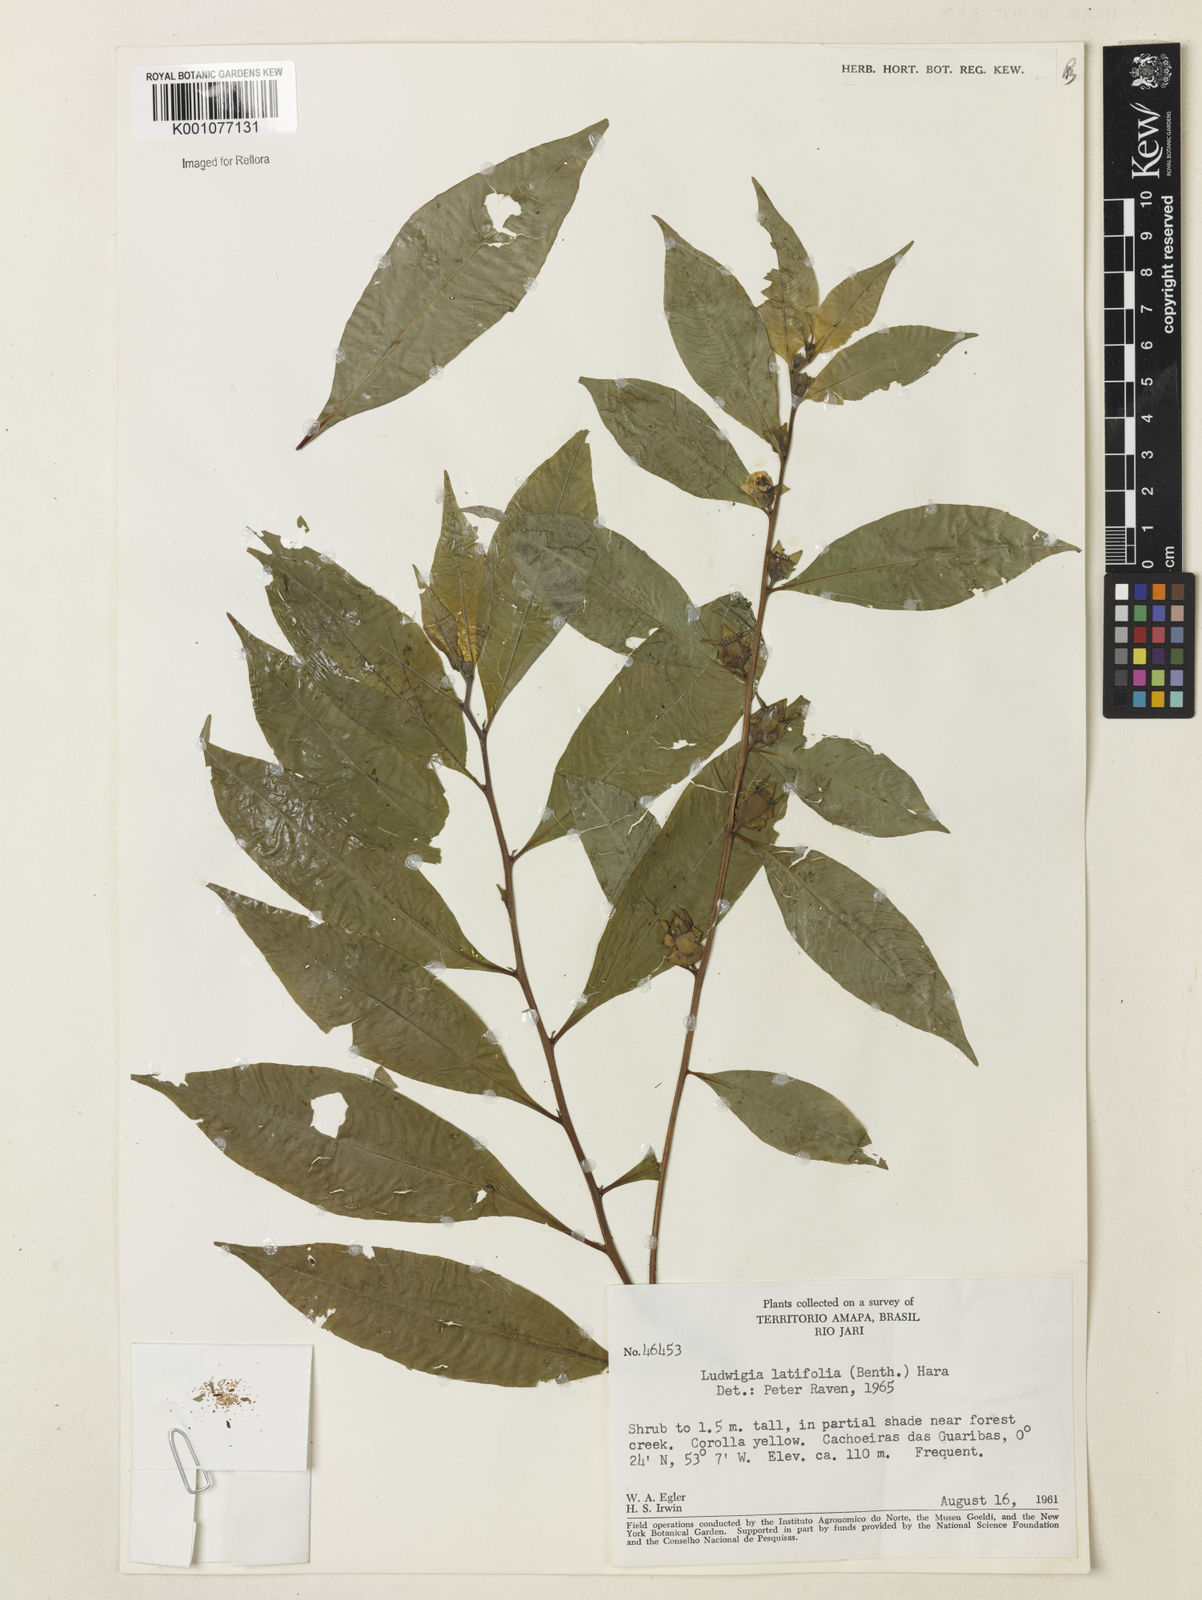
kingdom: Plantae
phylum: Tracheophyta
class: Magnoliopsida
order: Myrtales
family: Onagraceae
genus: Ludwigia
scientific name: Ludwigia latifolia
